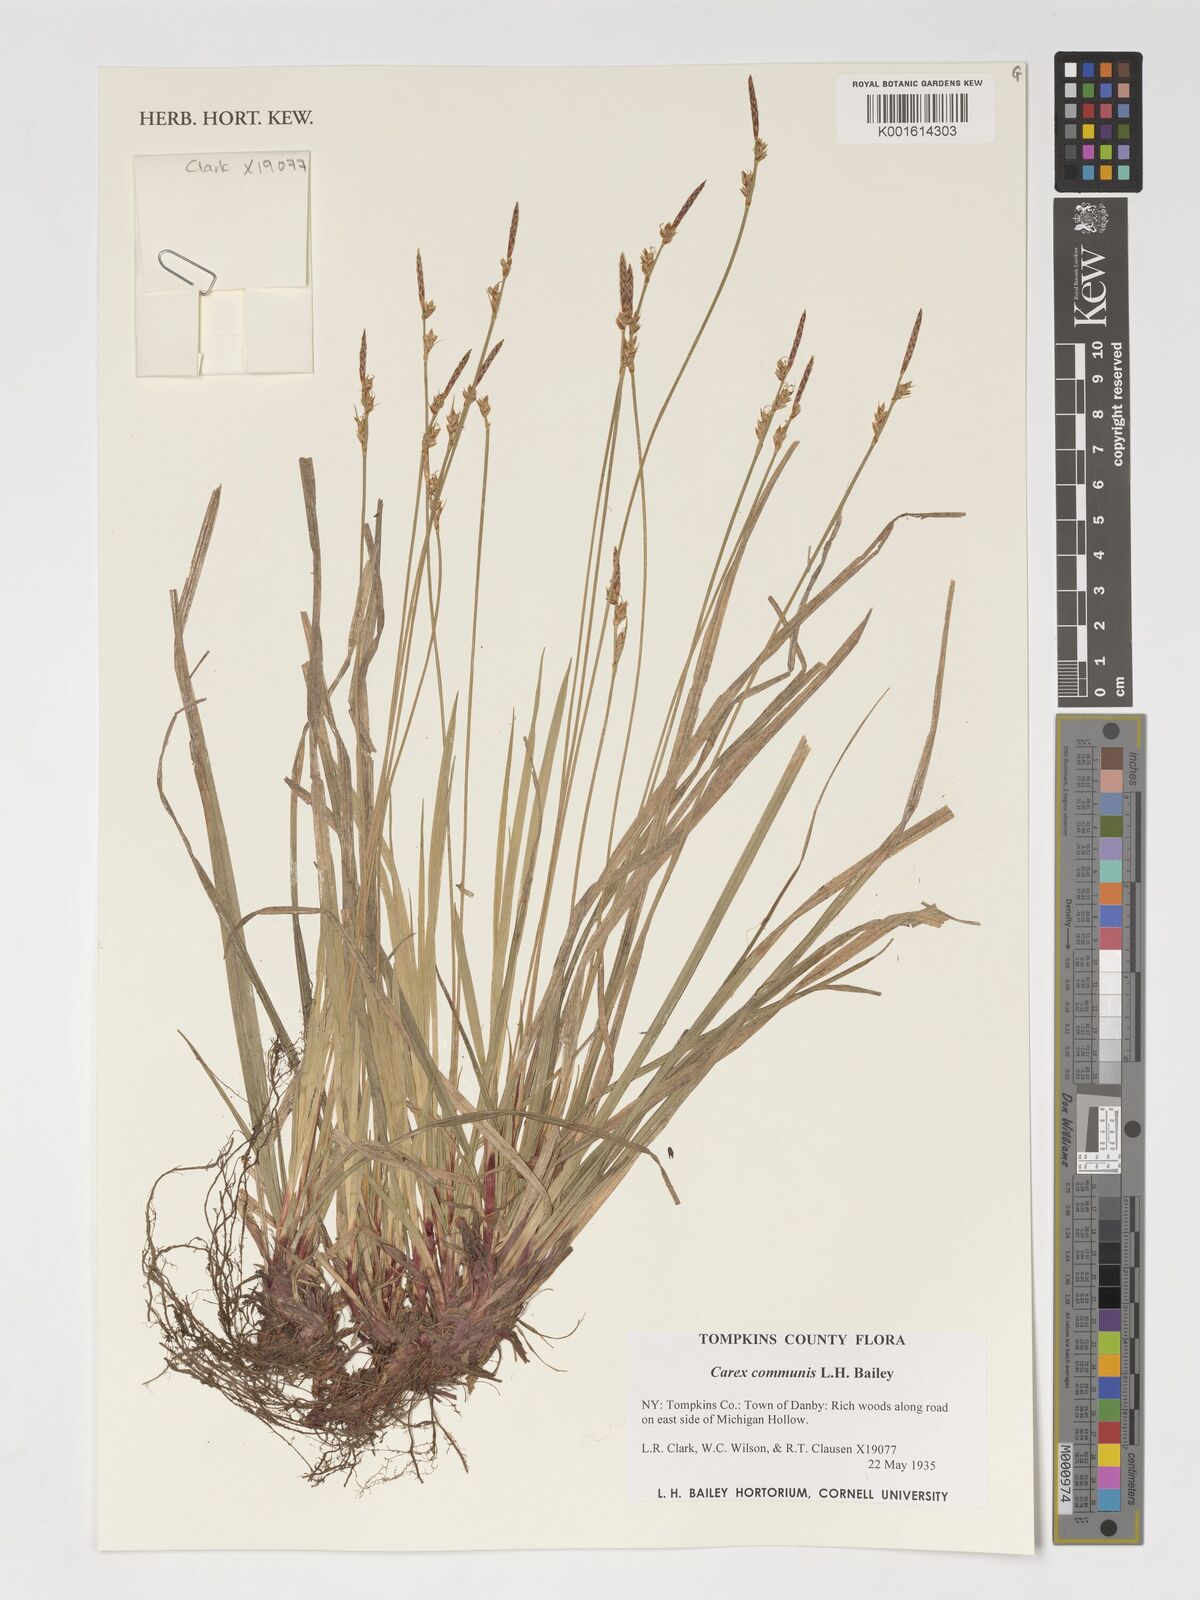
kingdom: Plantae
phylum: Tracheophyta
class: Liliopsida
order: Poales
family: Cyperaceae
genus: Carex
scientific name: Carex communis
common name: Colonial oak sedge
